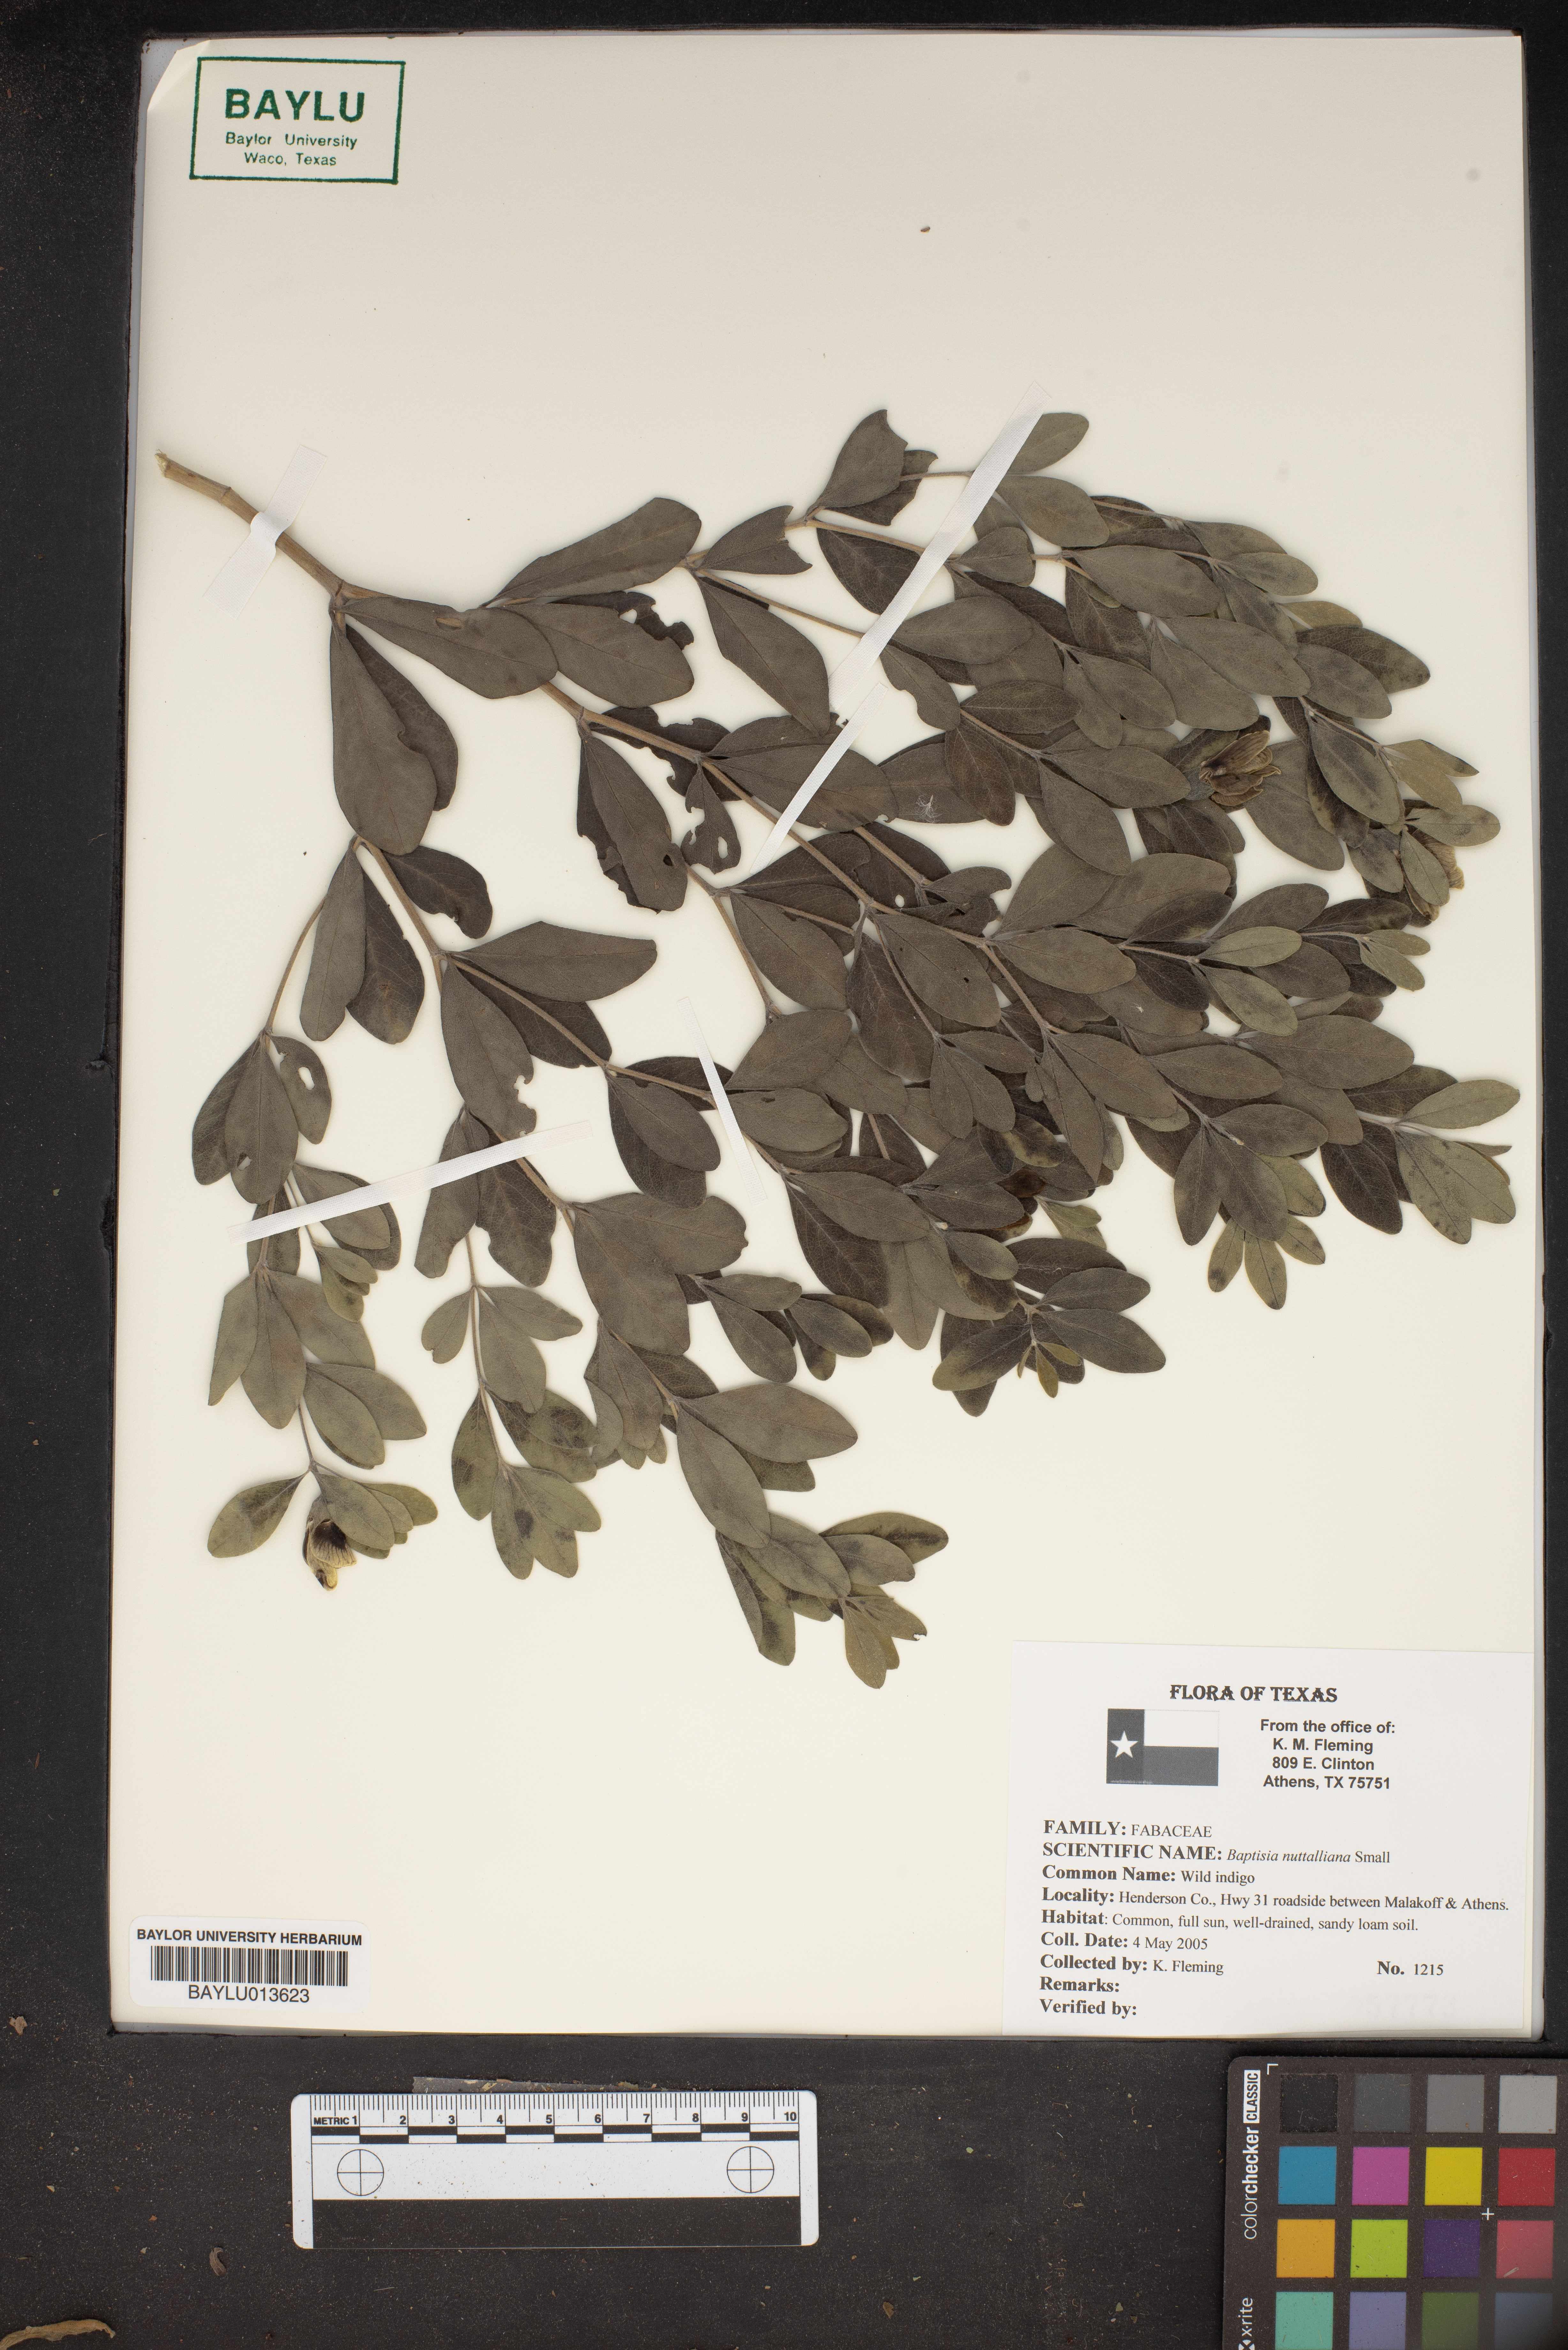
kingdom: Plantae
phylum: Tracheophyta
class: Magnoliopsida
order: Fabales
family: Fabaceae
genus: Baptisia
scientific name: Baptisia nuttalliana
